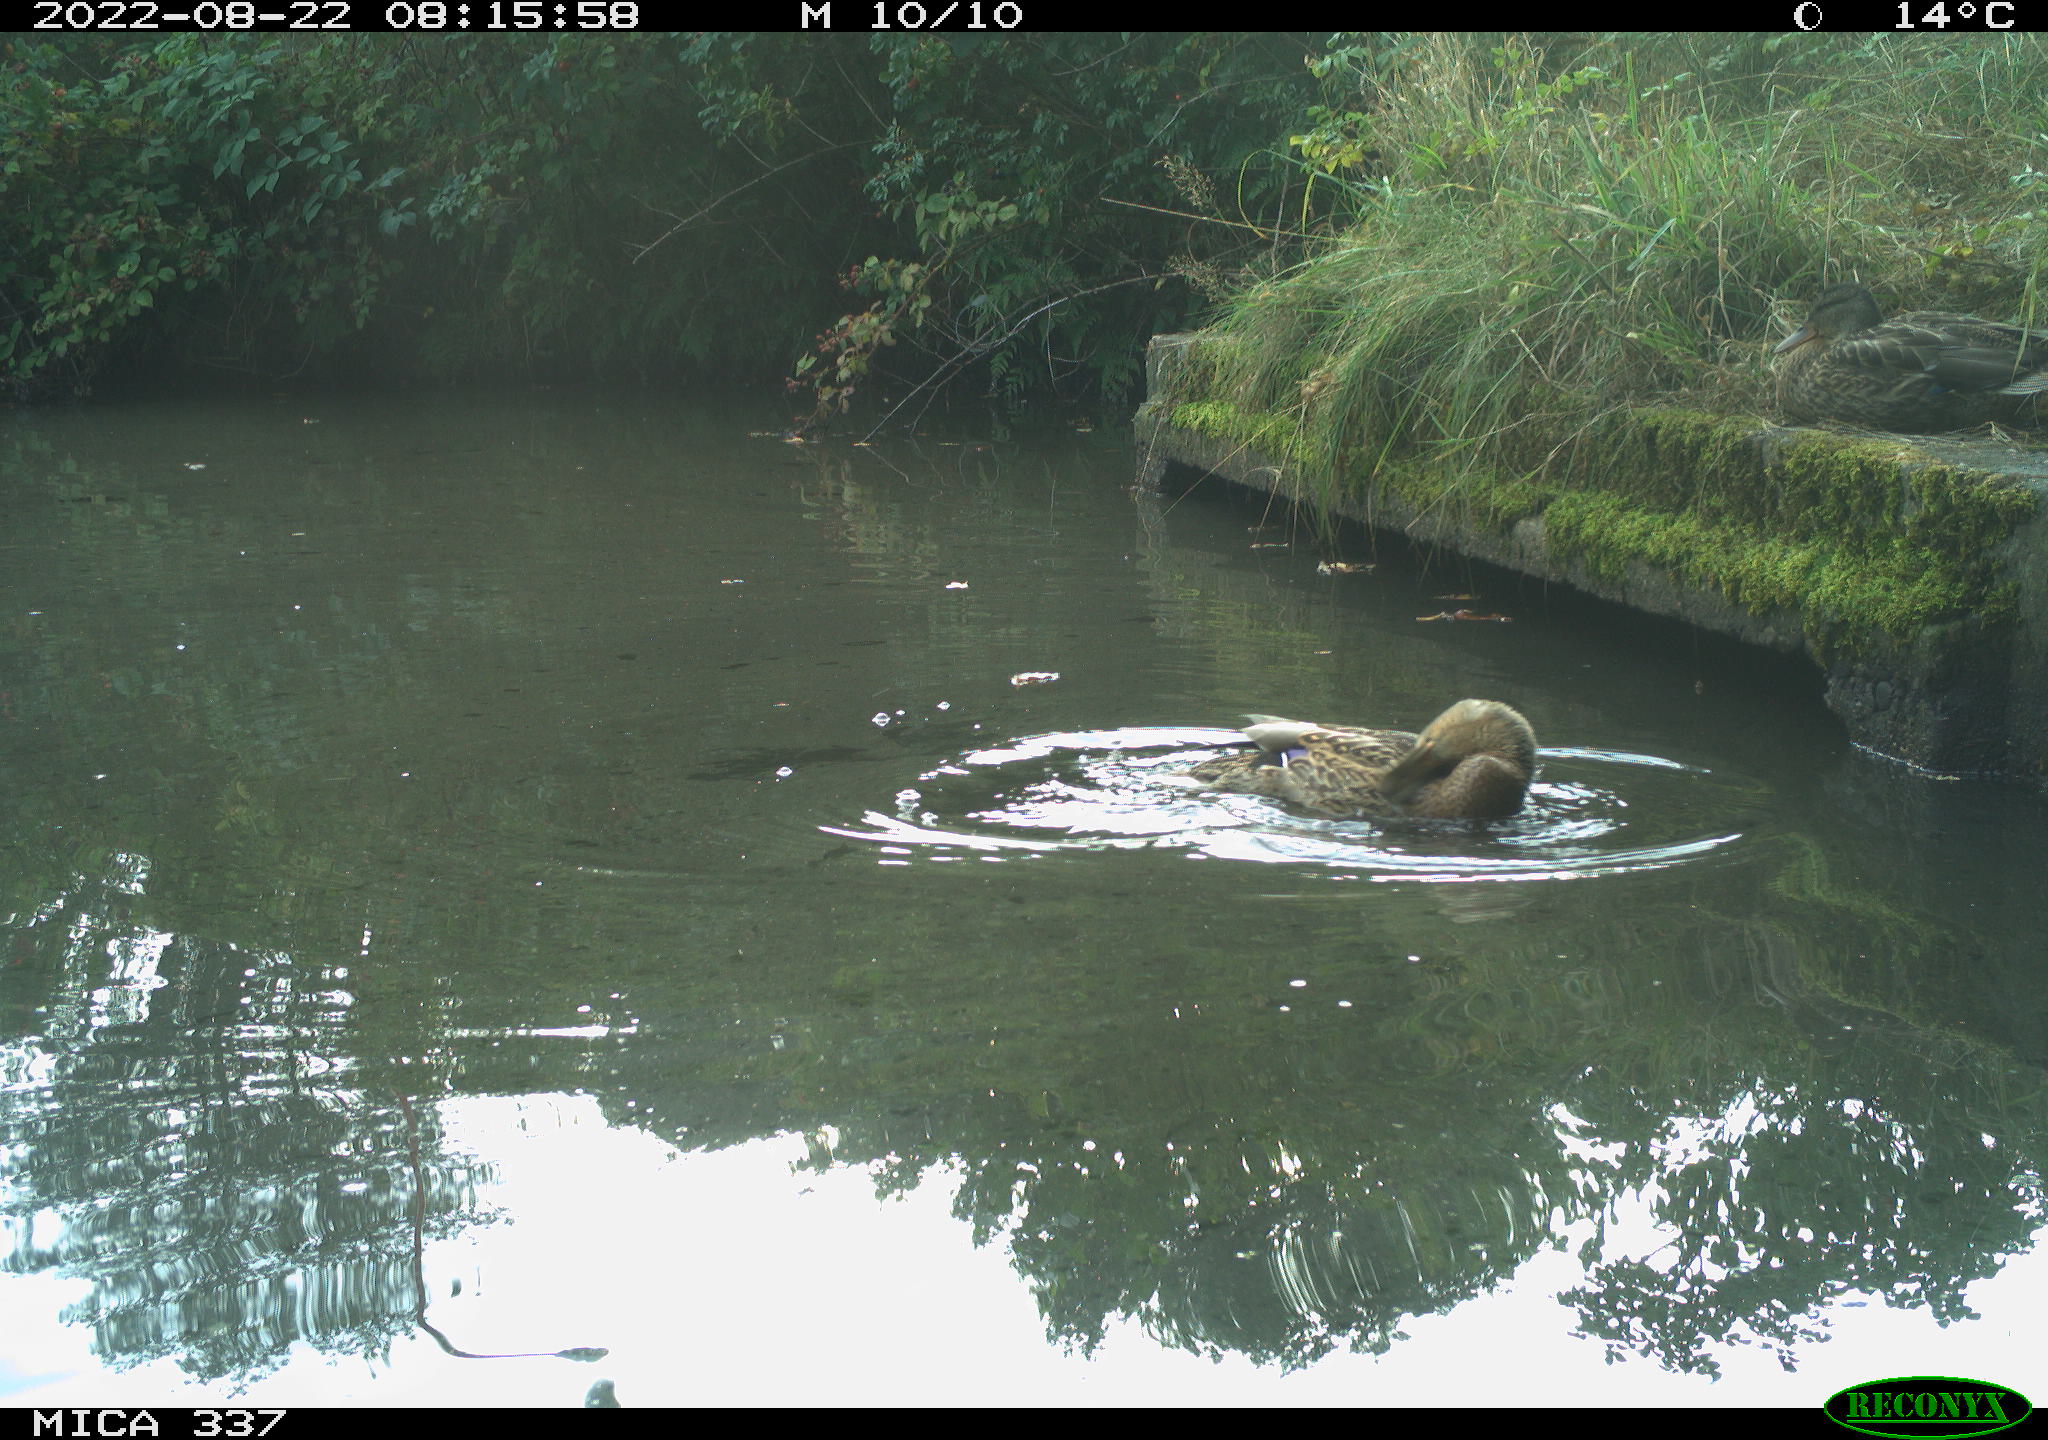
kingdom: Animalia
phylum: Chordata
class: Aves
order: Anseriformes
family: Anatidae
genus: Anas
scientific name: Anas platyrhynchos
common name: Mallard
